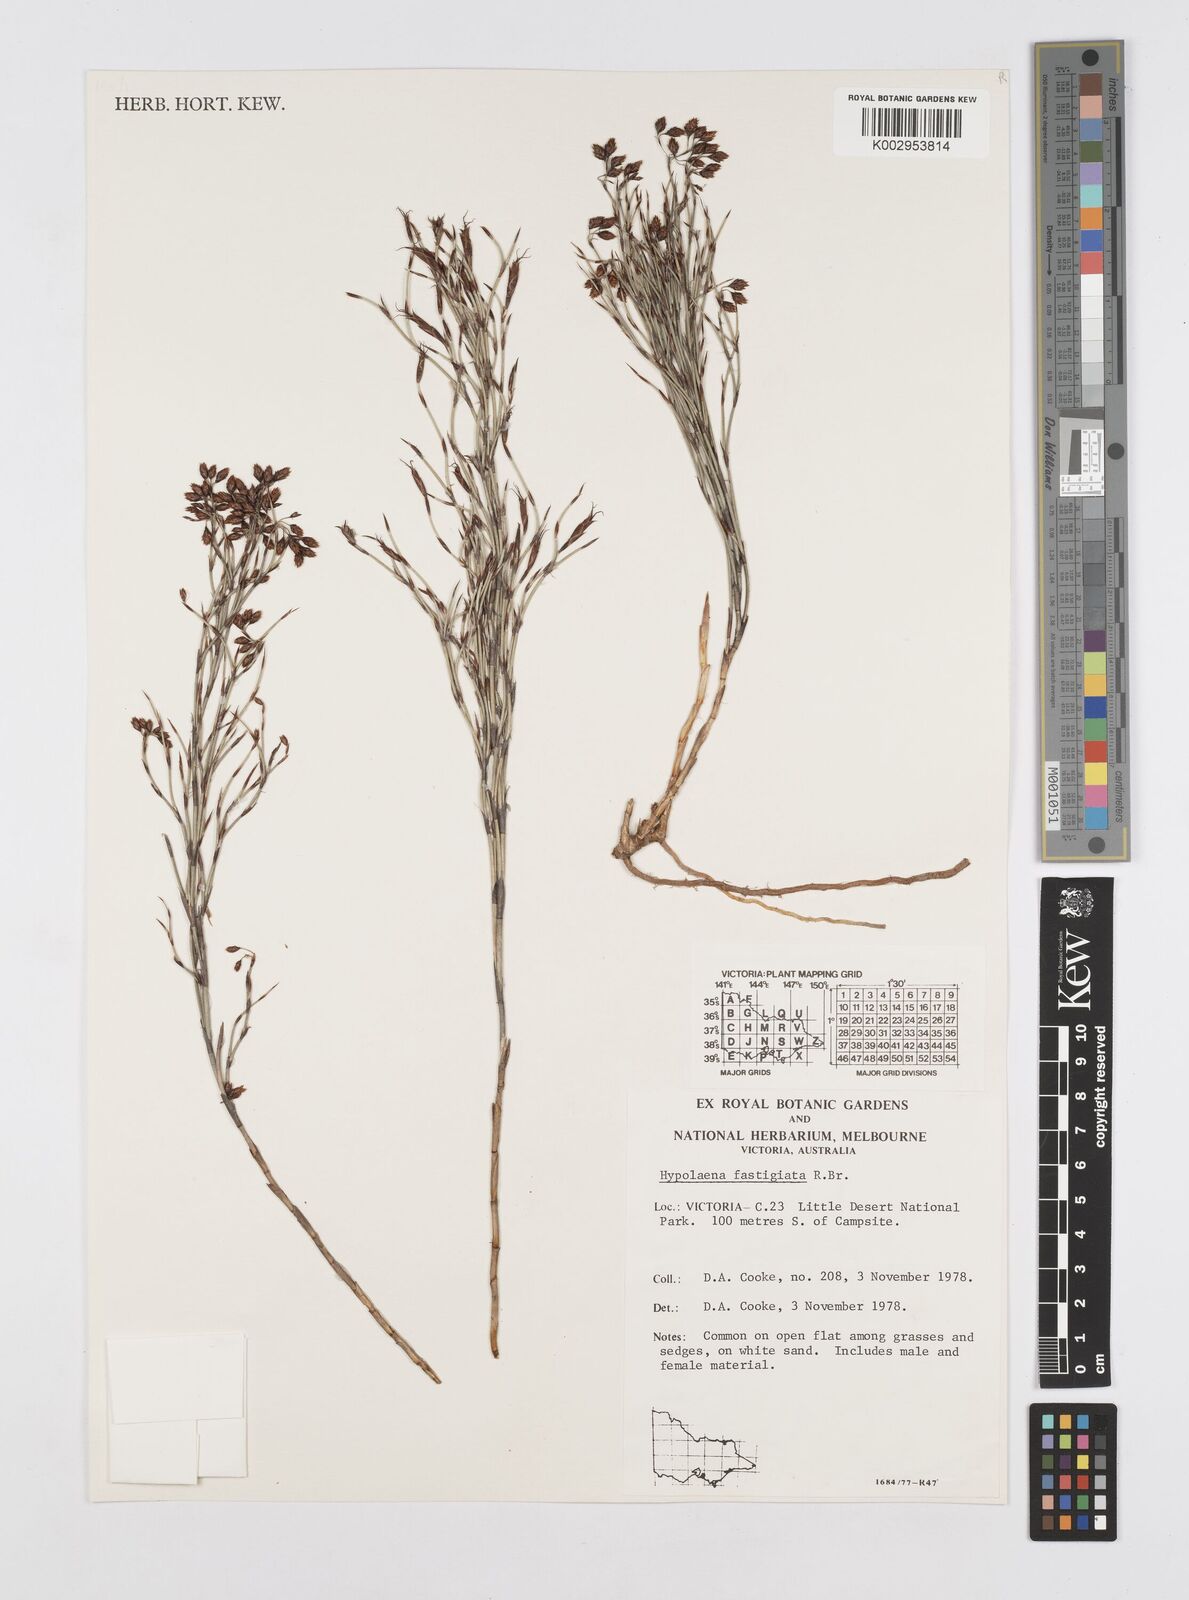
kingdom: Plantae
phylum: Tracheophyta
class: Liliopsida
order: Poales
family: Restionaceae
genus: Hypolaena
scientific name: Hypolaena fastigiata
